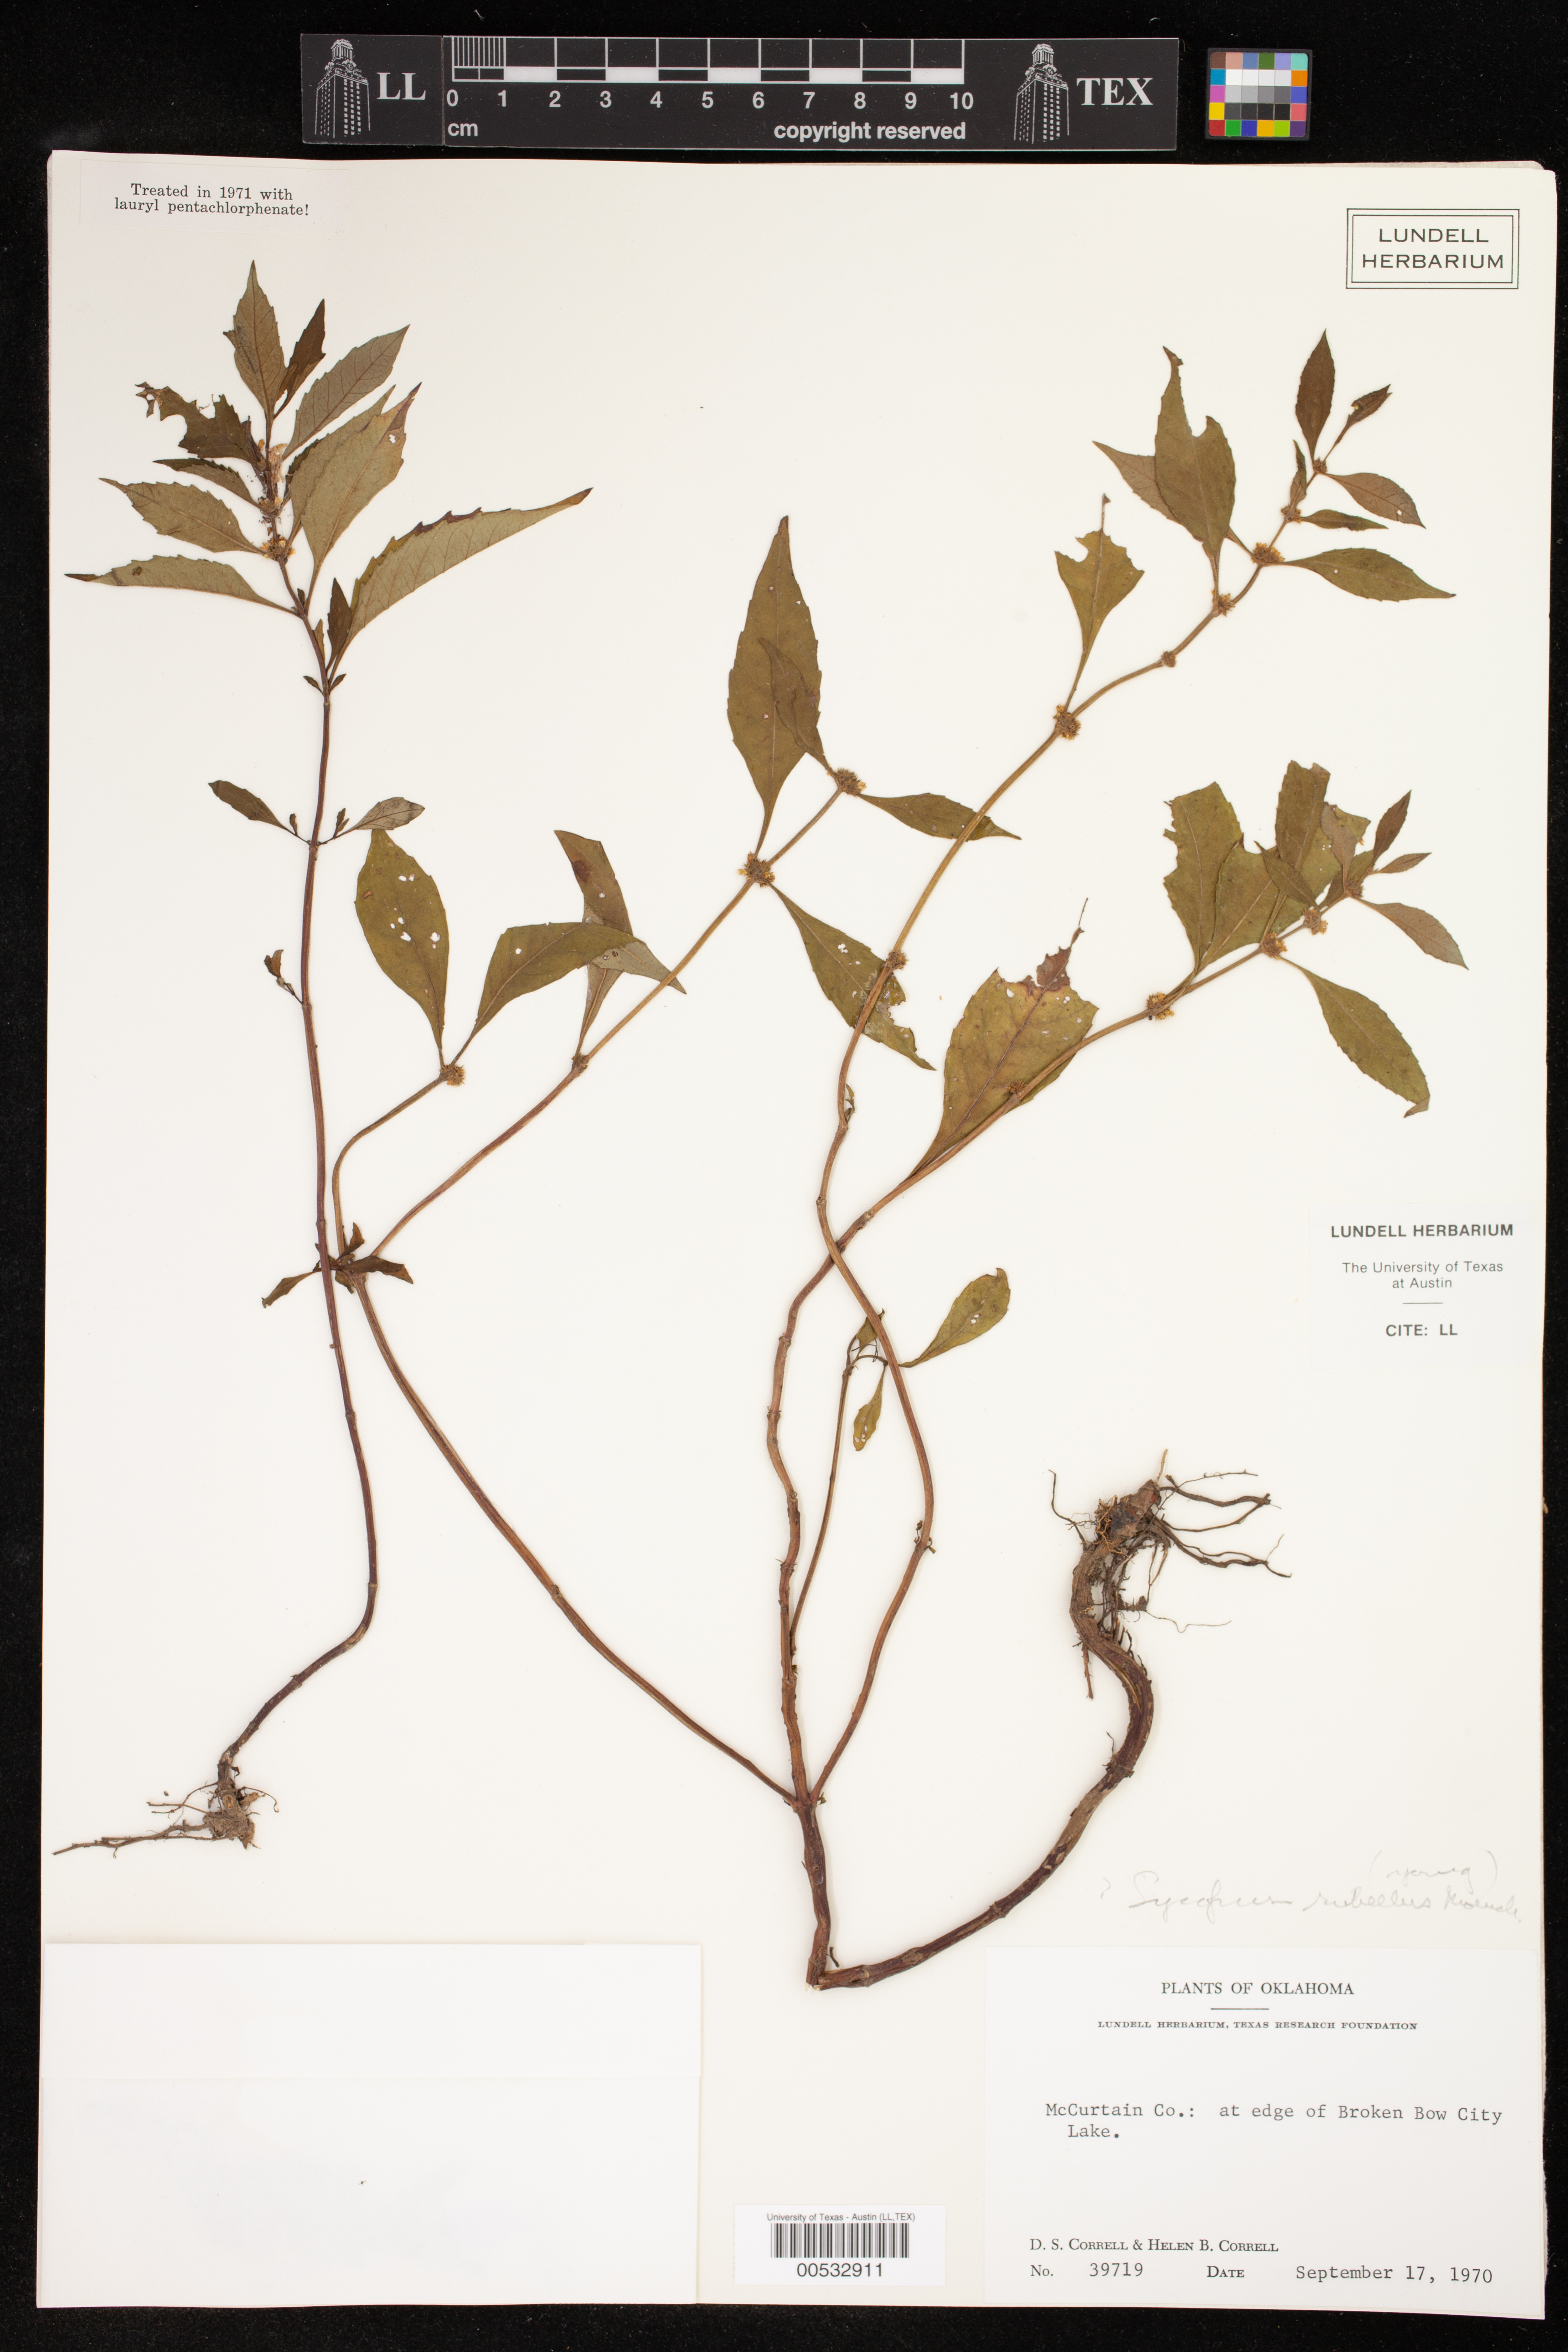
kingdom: Plantae
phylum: Tracheophyta
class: Magnoliopsida
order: Lamiales
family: Lamiaceae
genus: Lycopus
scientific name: Lycopus rubellus
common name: Stalked bugleweed
